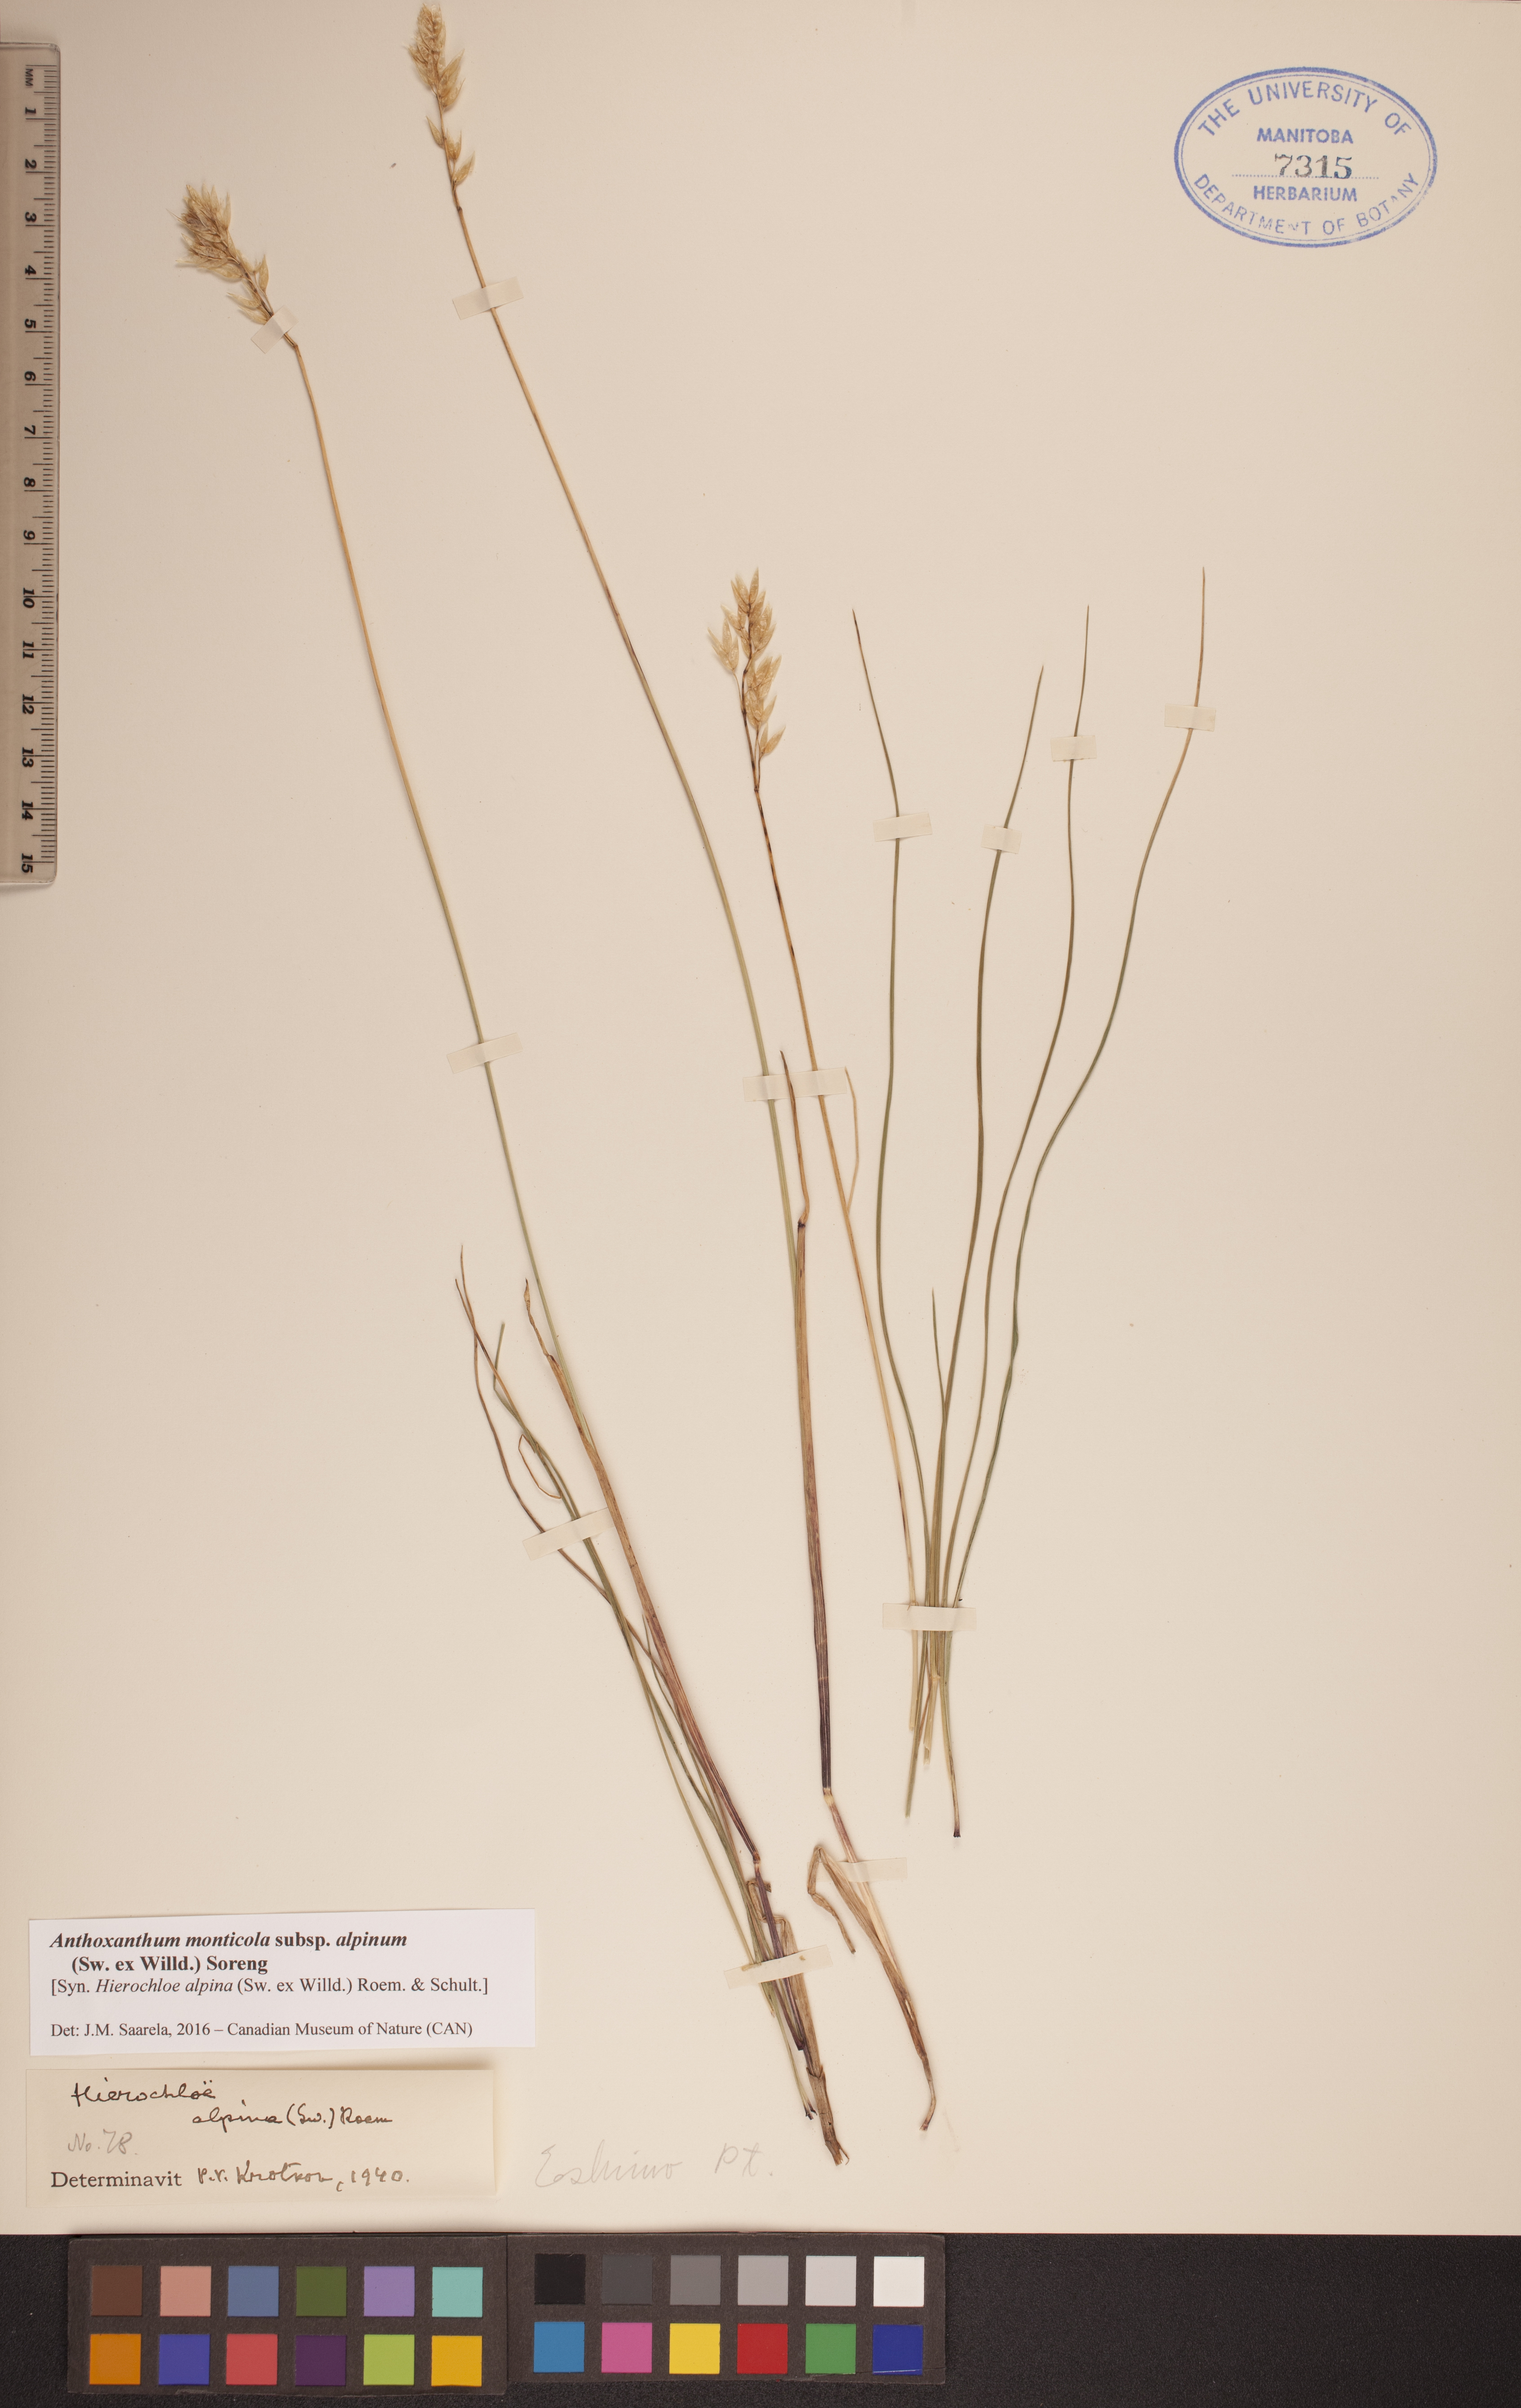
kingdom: Plantae
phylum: Tracheophyta
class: Liliopsida
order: Poales
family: Poaceae
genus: Anthoxanthum
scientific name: Anthoxanthum monticola
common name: Alpine sweetgrass
